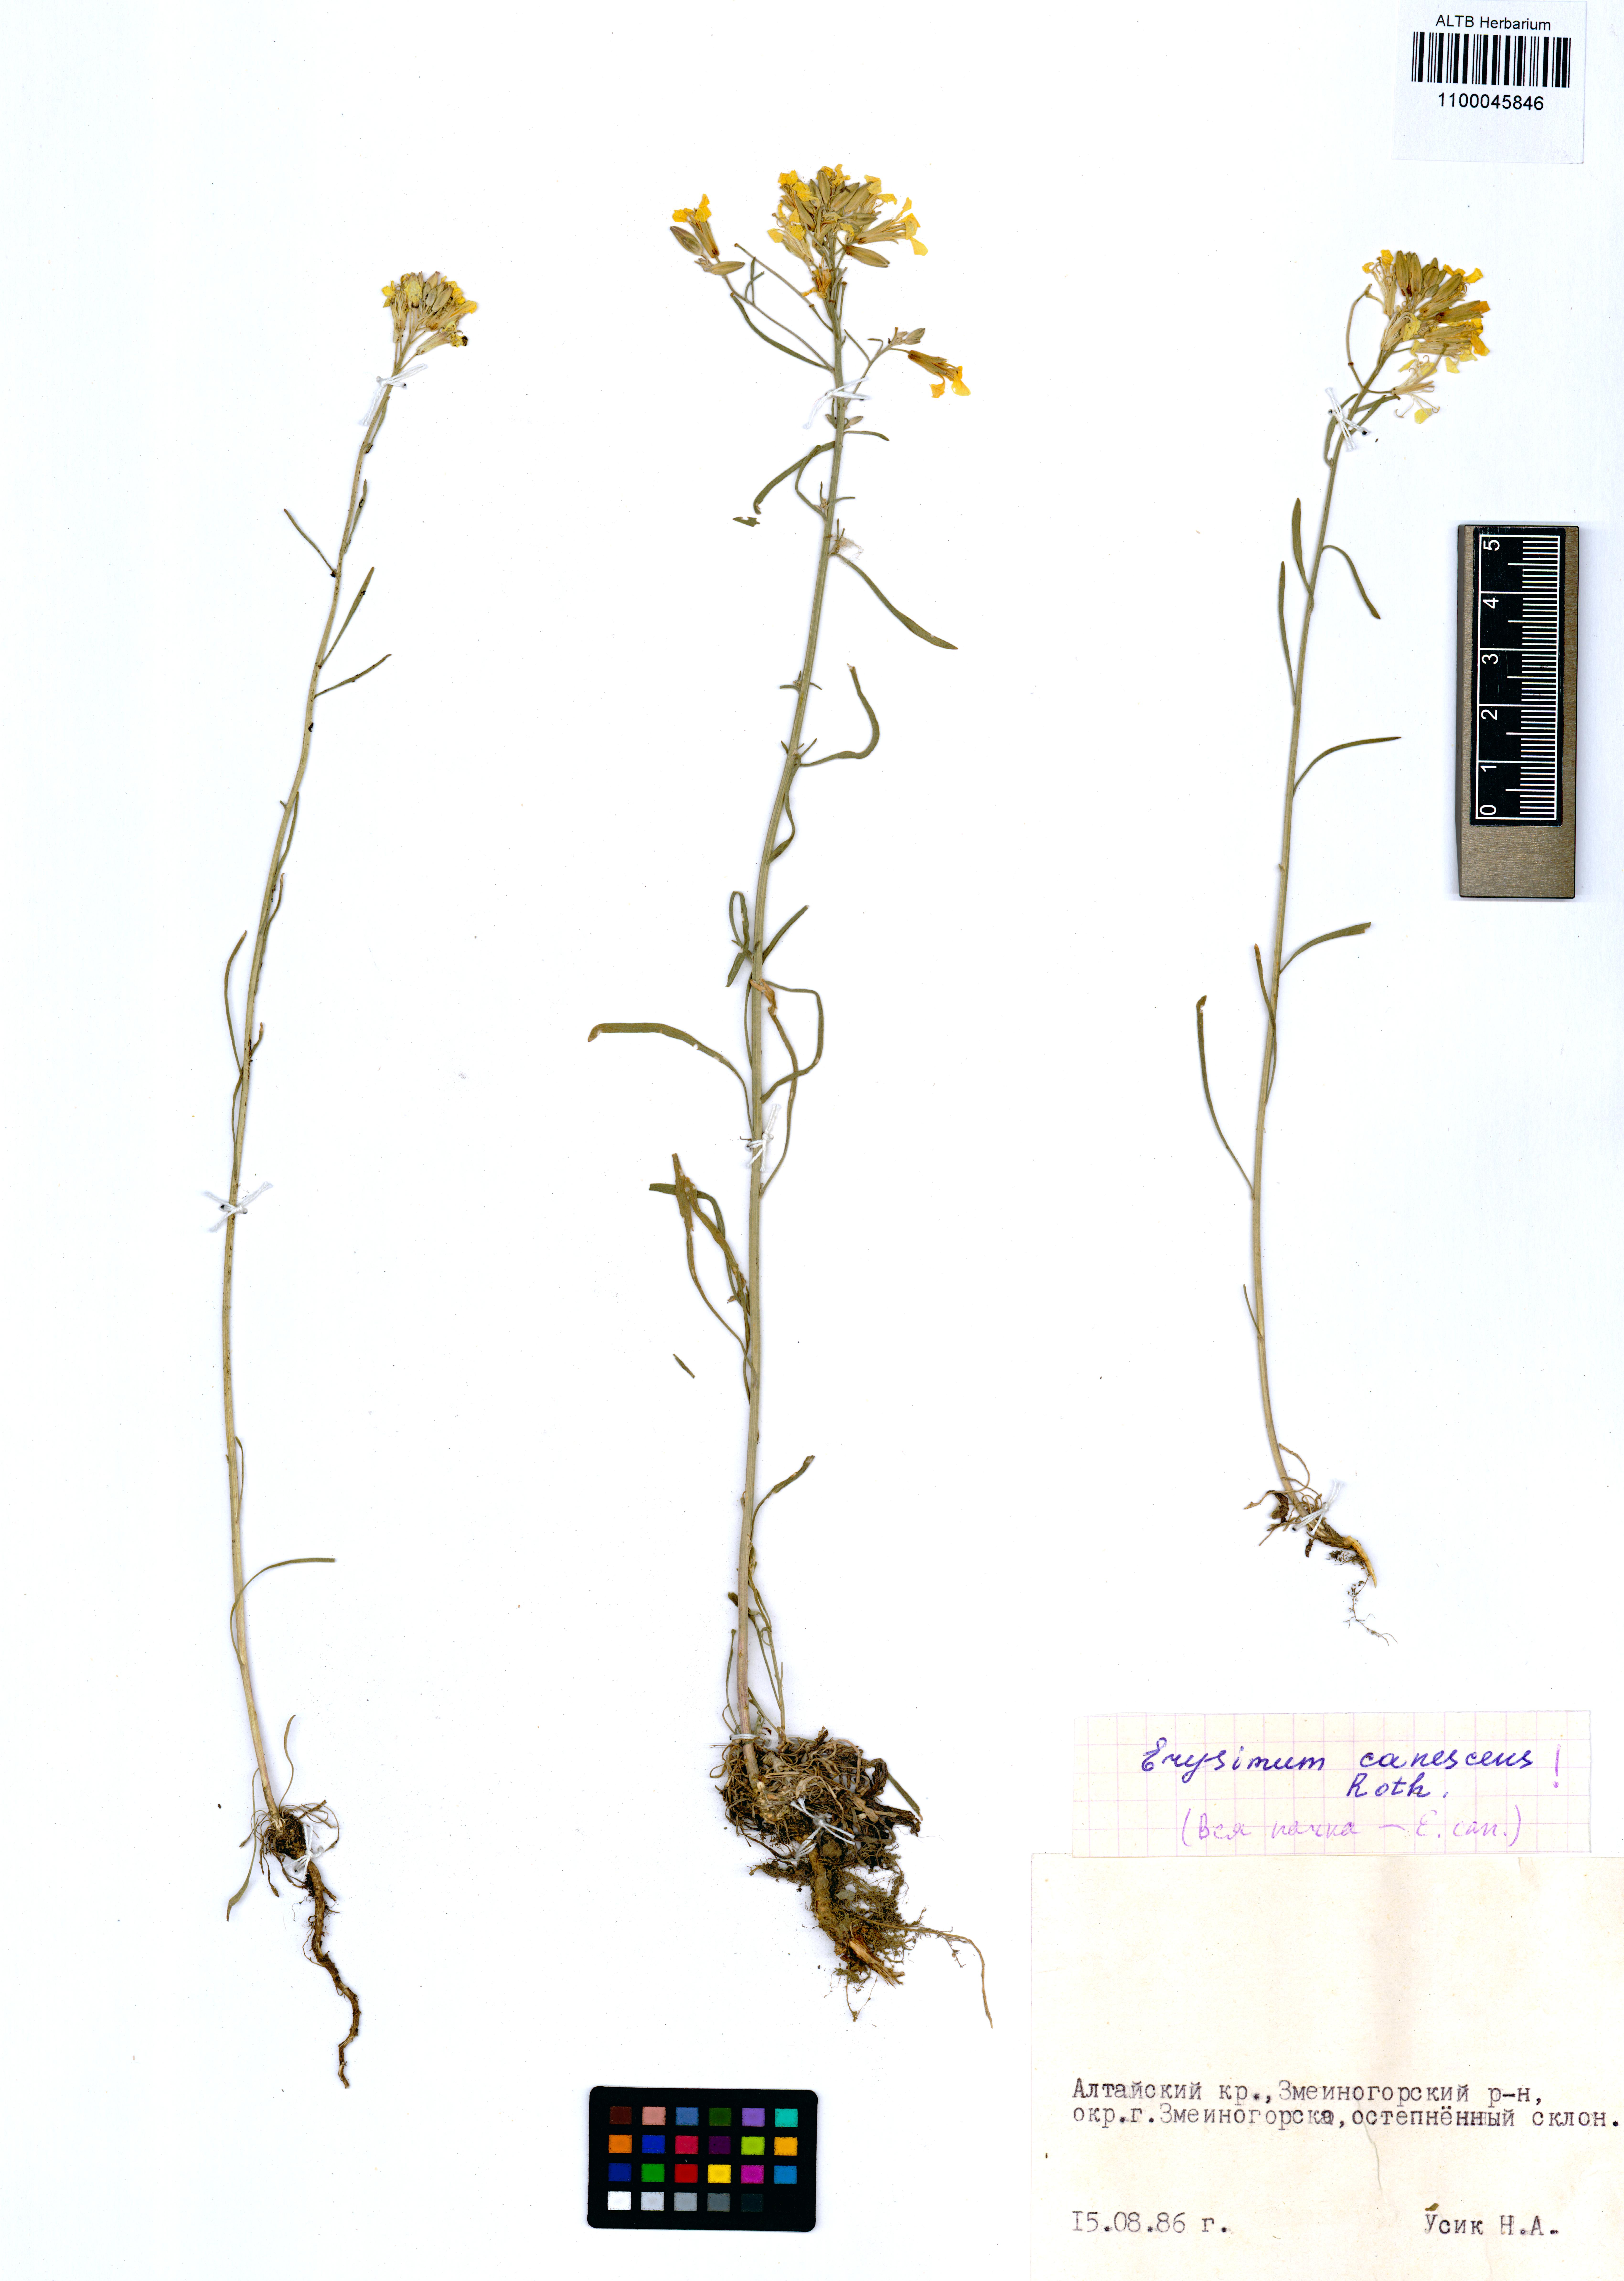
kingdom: Plantae
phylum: Tracheophyta
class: Magnoliopsida
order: Brassicales
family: Brassicaceae
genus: Erysimum
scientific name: Erysimum canescens
